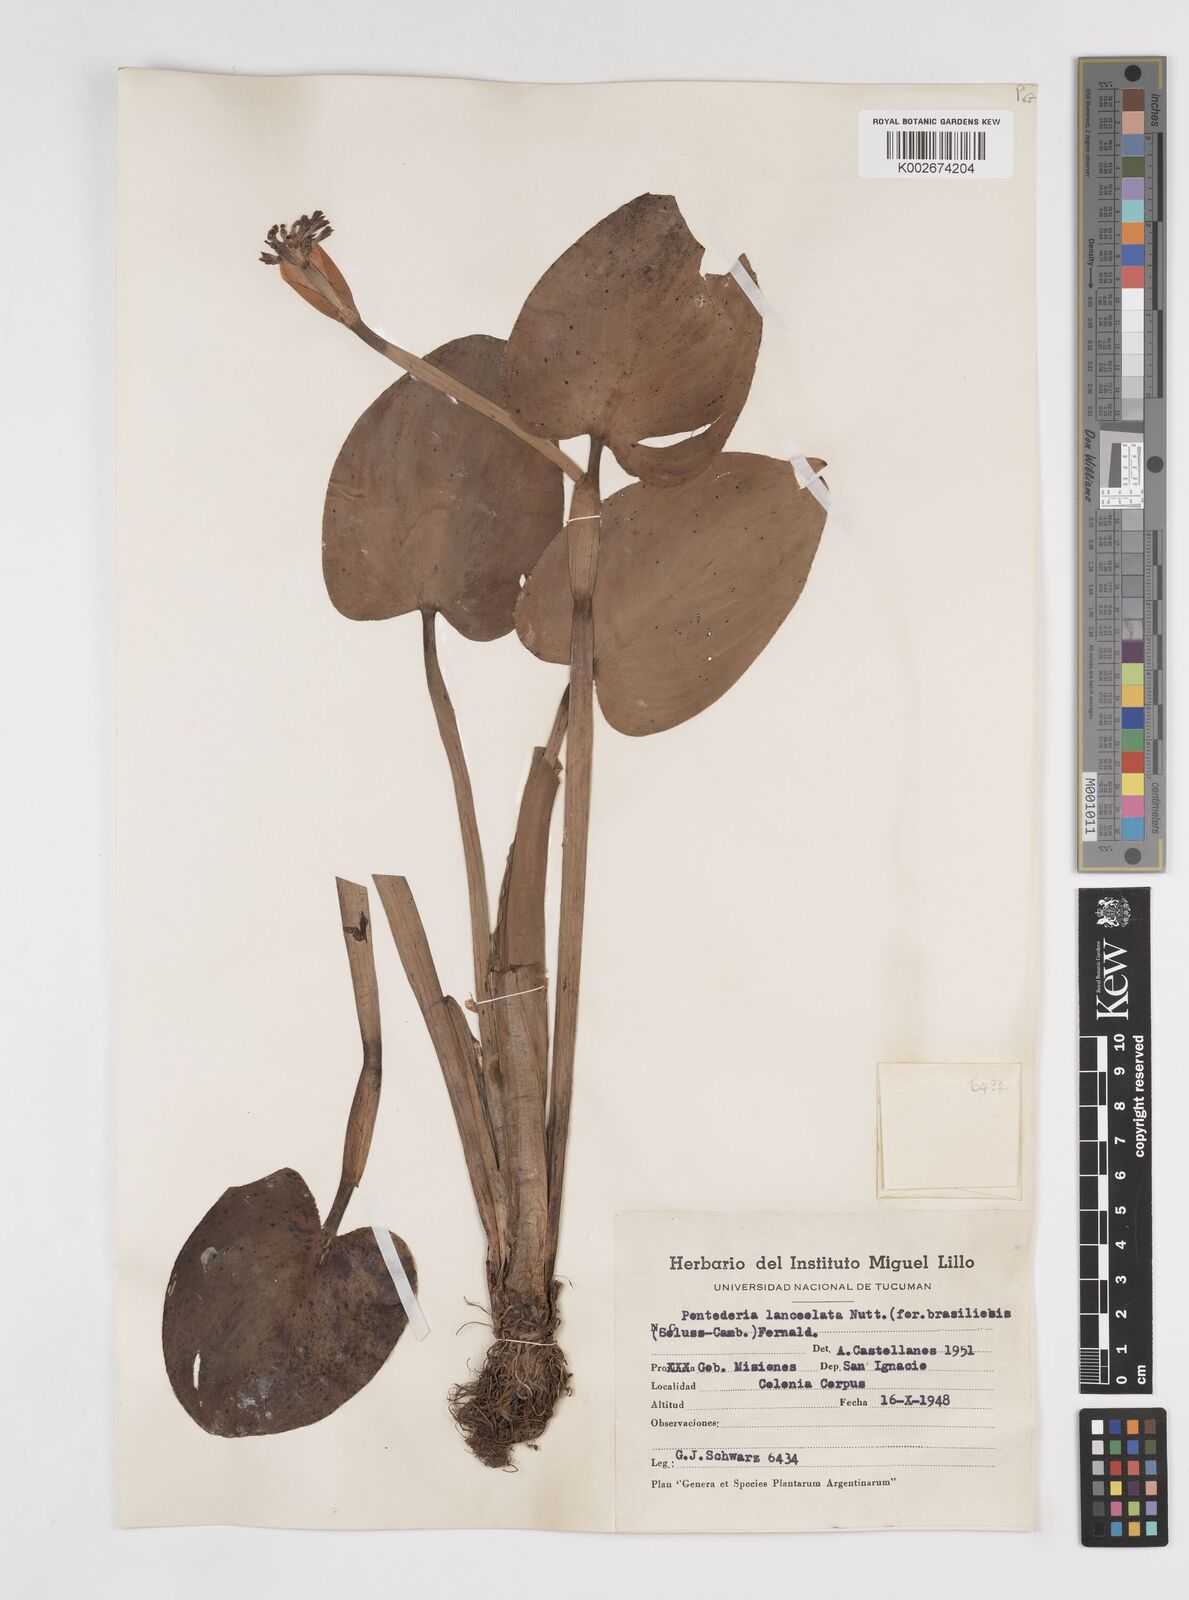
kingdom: Plantae
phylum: Tracheophyta
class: Liliopsida
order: Commelinales
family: Pontederiaceae
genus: Pontederia
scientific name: Pontederia cordata
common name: Pickerelweed
